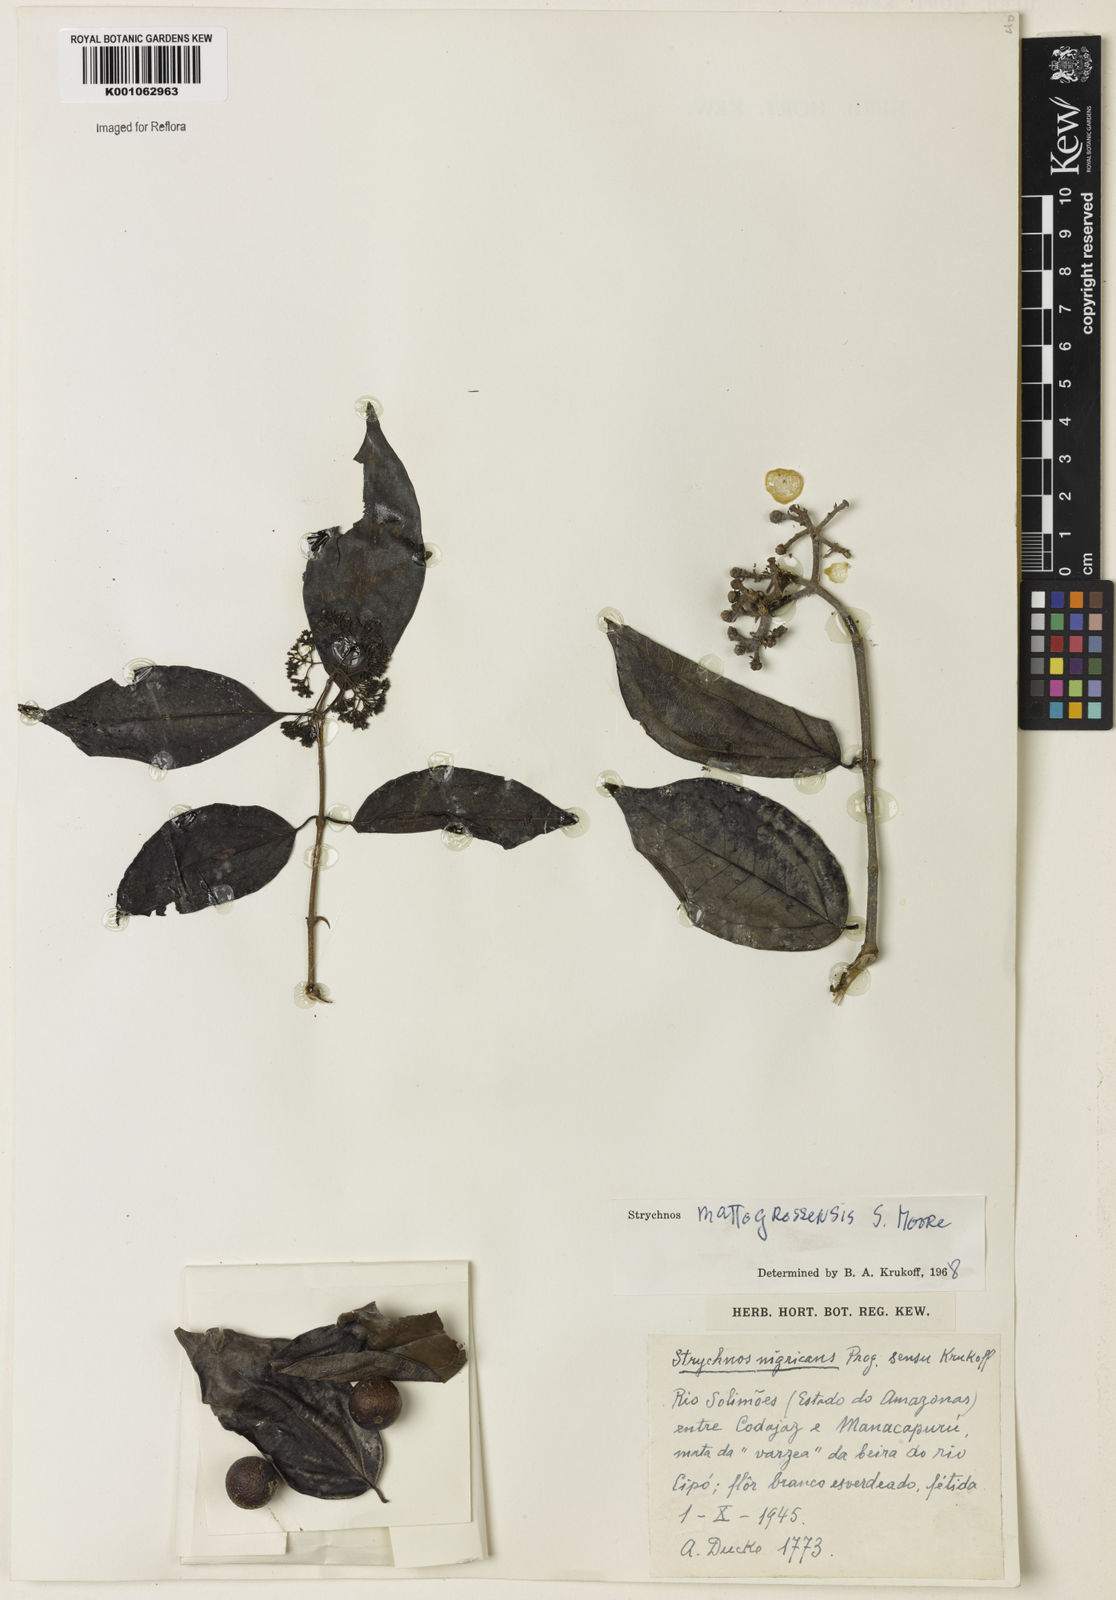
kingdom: Plantae
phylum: Tracheophyta
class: Magnoliopsida
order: Gentianales
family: Loganiaceae
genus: Strychnos
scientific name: Strychnos mattogrossensis
